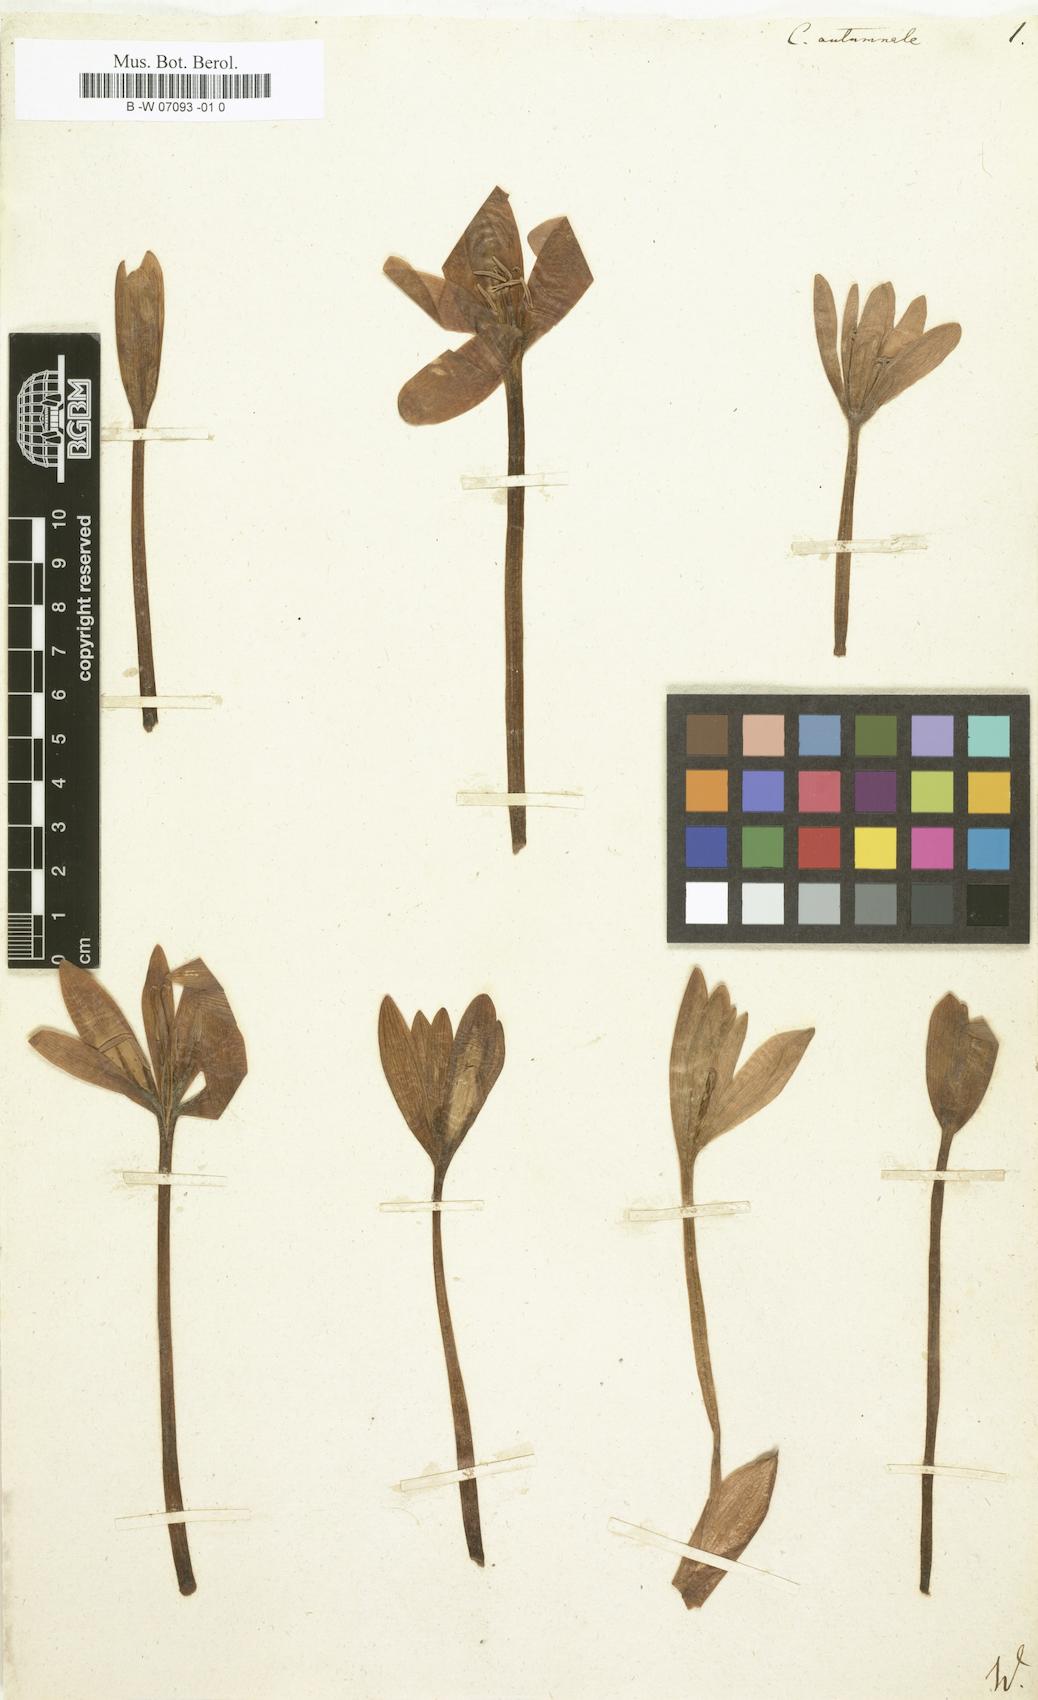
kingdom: Plantae
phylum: Tracheophyta
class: Liliopsida
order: Liliales
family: Colchicaceae
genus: Colchicum
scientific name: Colchicum
